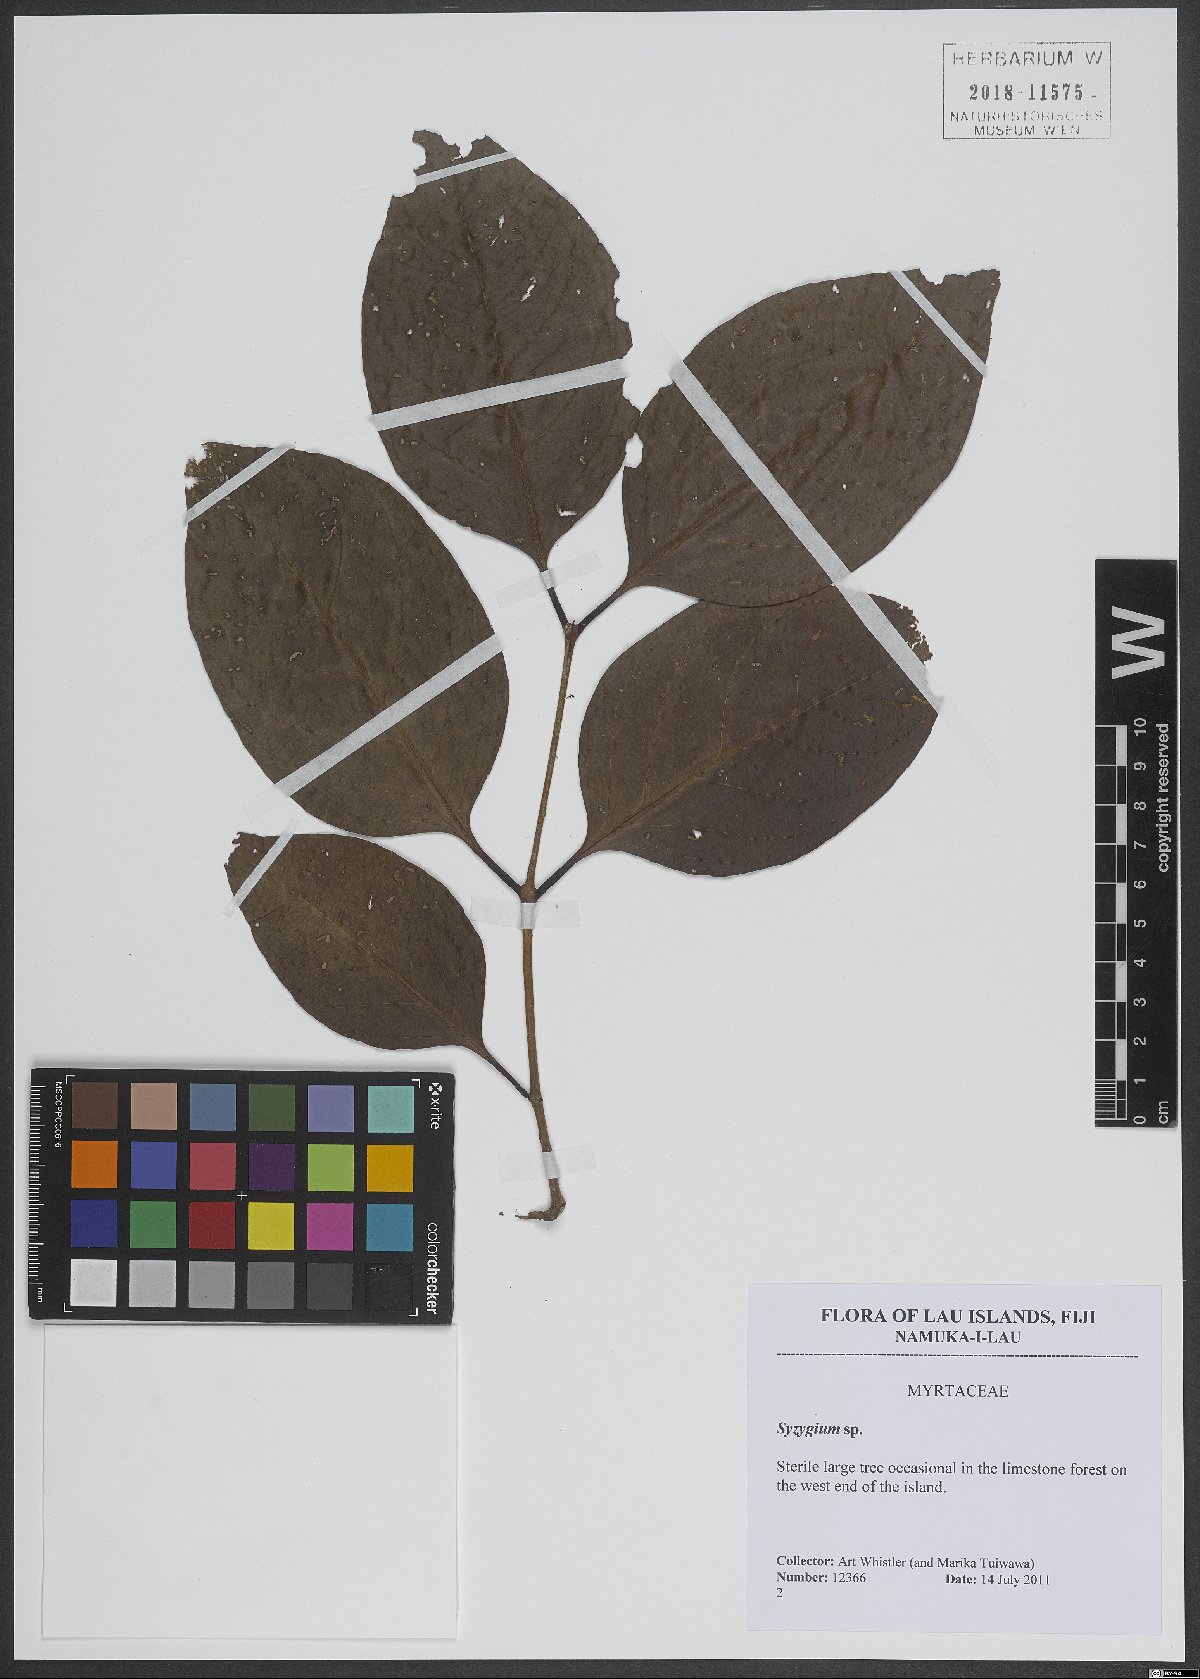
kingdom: Plantae
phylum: Tracheophyta
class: Magnoliopsida
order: Myrtales
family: Myrtaceae
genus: Syzygium
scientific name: Syzygium
